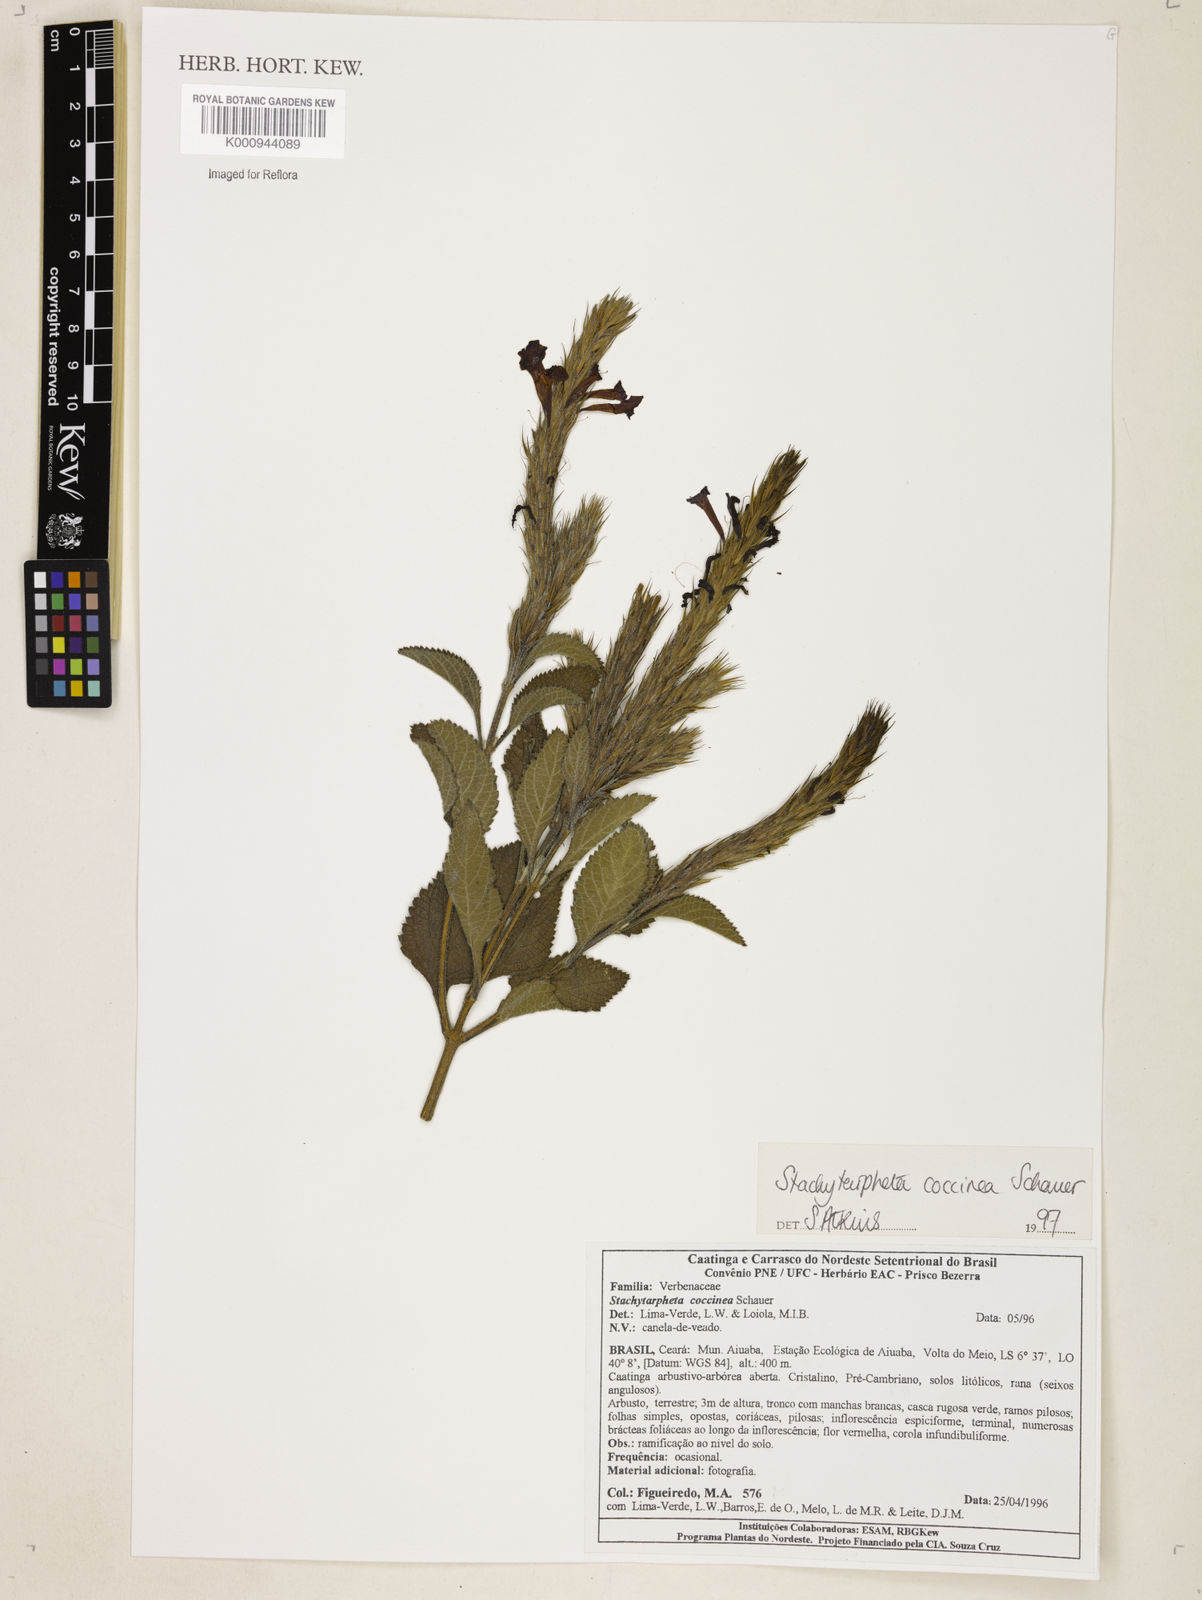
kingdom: Plantae
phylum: Tracheophyta
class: Magnoliopsida
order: Lamiales
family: Verbenaceae
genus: Stachytarpheta
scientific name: Stachytarpheta coccinea
